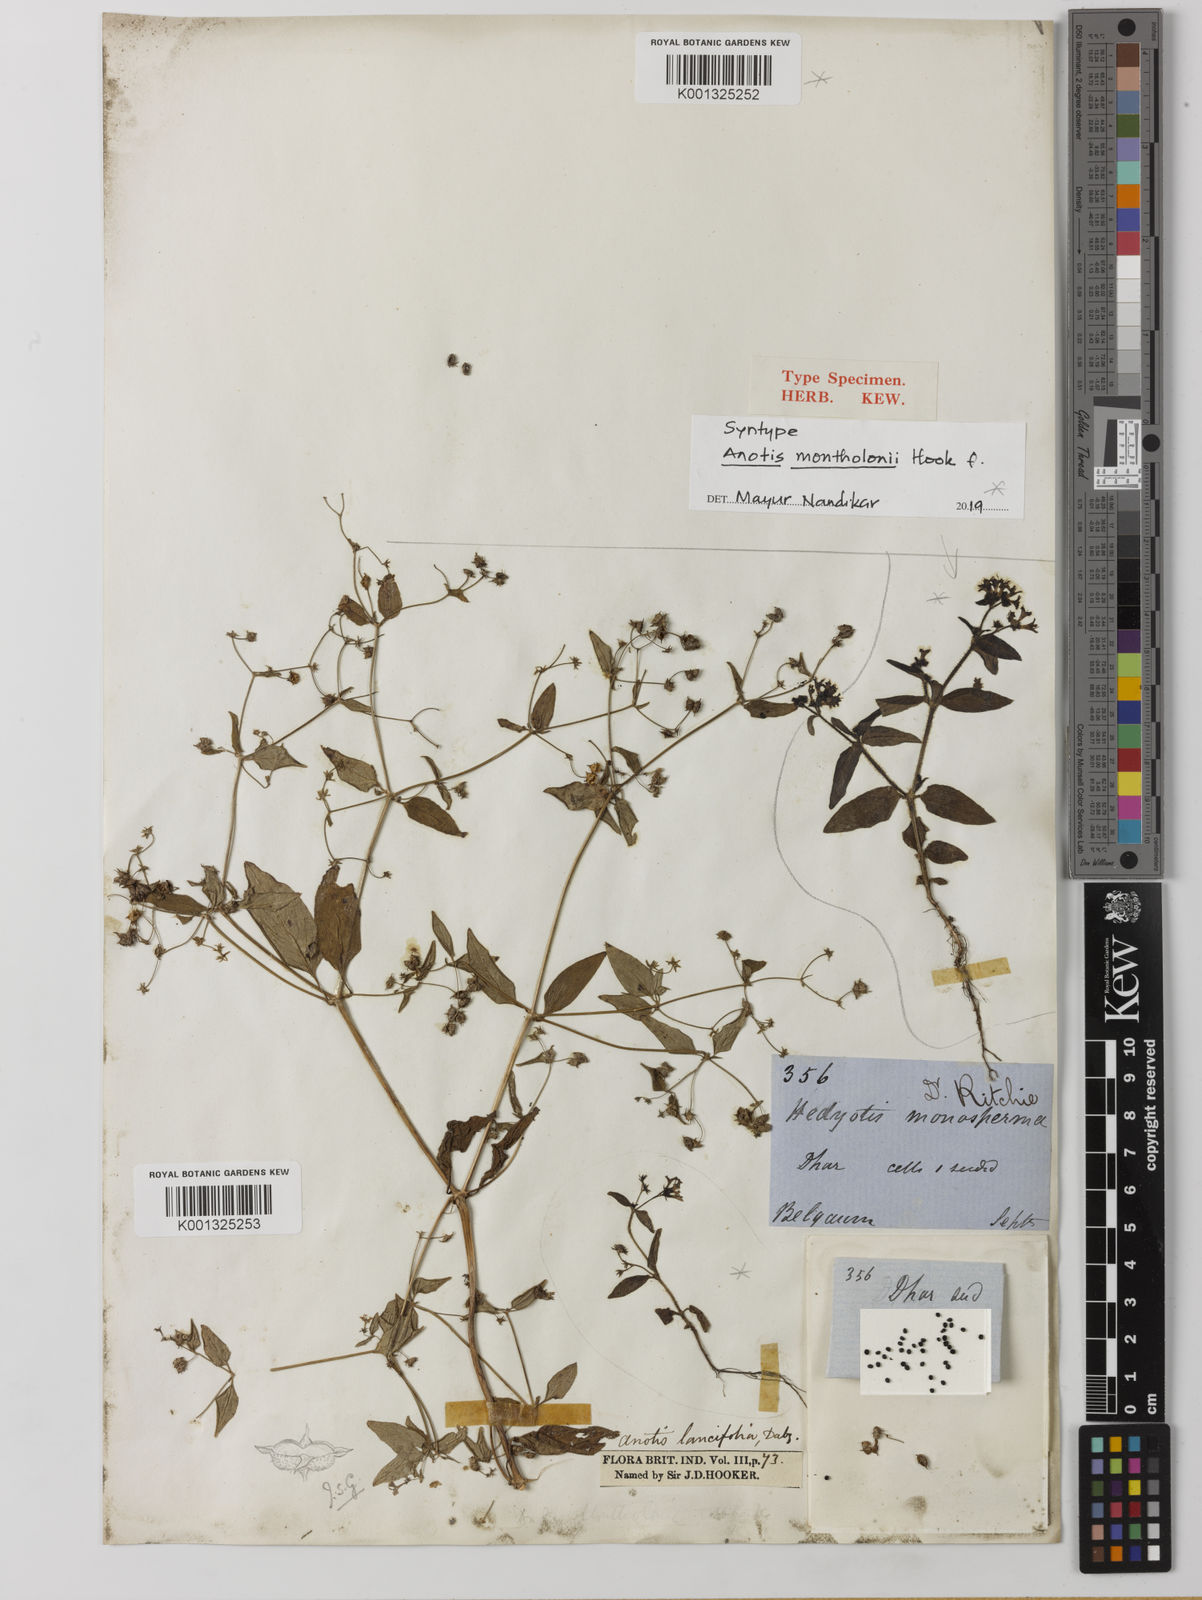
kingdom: Plantae
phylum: Tracheophyta
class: Magnoliopsida
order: Gentianales
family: Rubiaceae
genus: Neanotis
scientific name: Neanotis lancifolia
